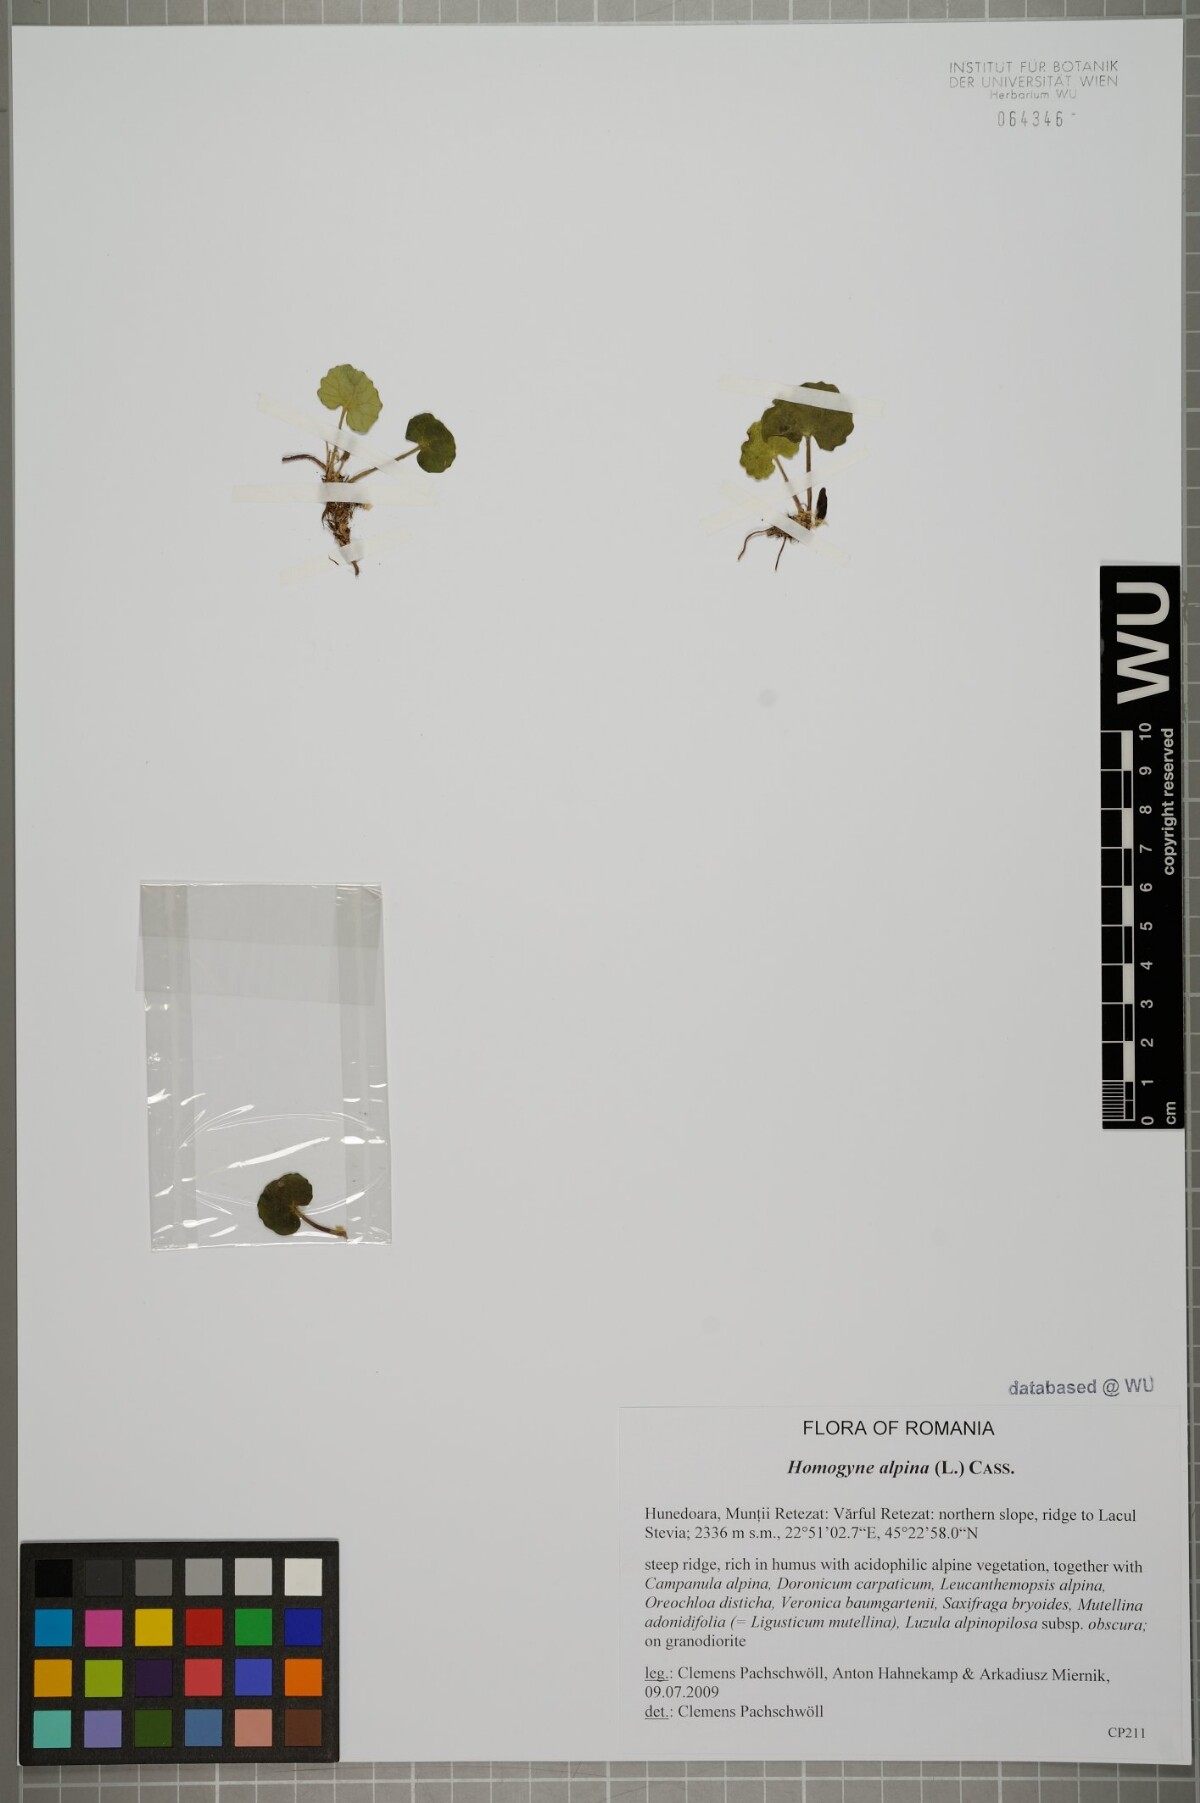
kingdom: Plantae
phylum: Tracheophyta
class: Magnoliopsida
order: Asterales
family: Asteraceae
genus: Homogyne
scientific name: Homogyne alpina
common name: Purple colt's-foot
